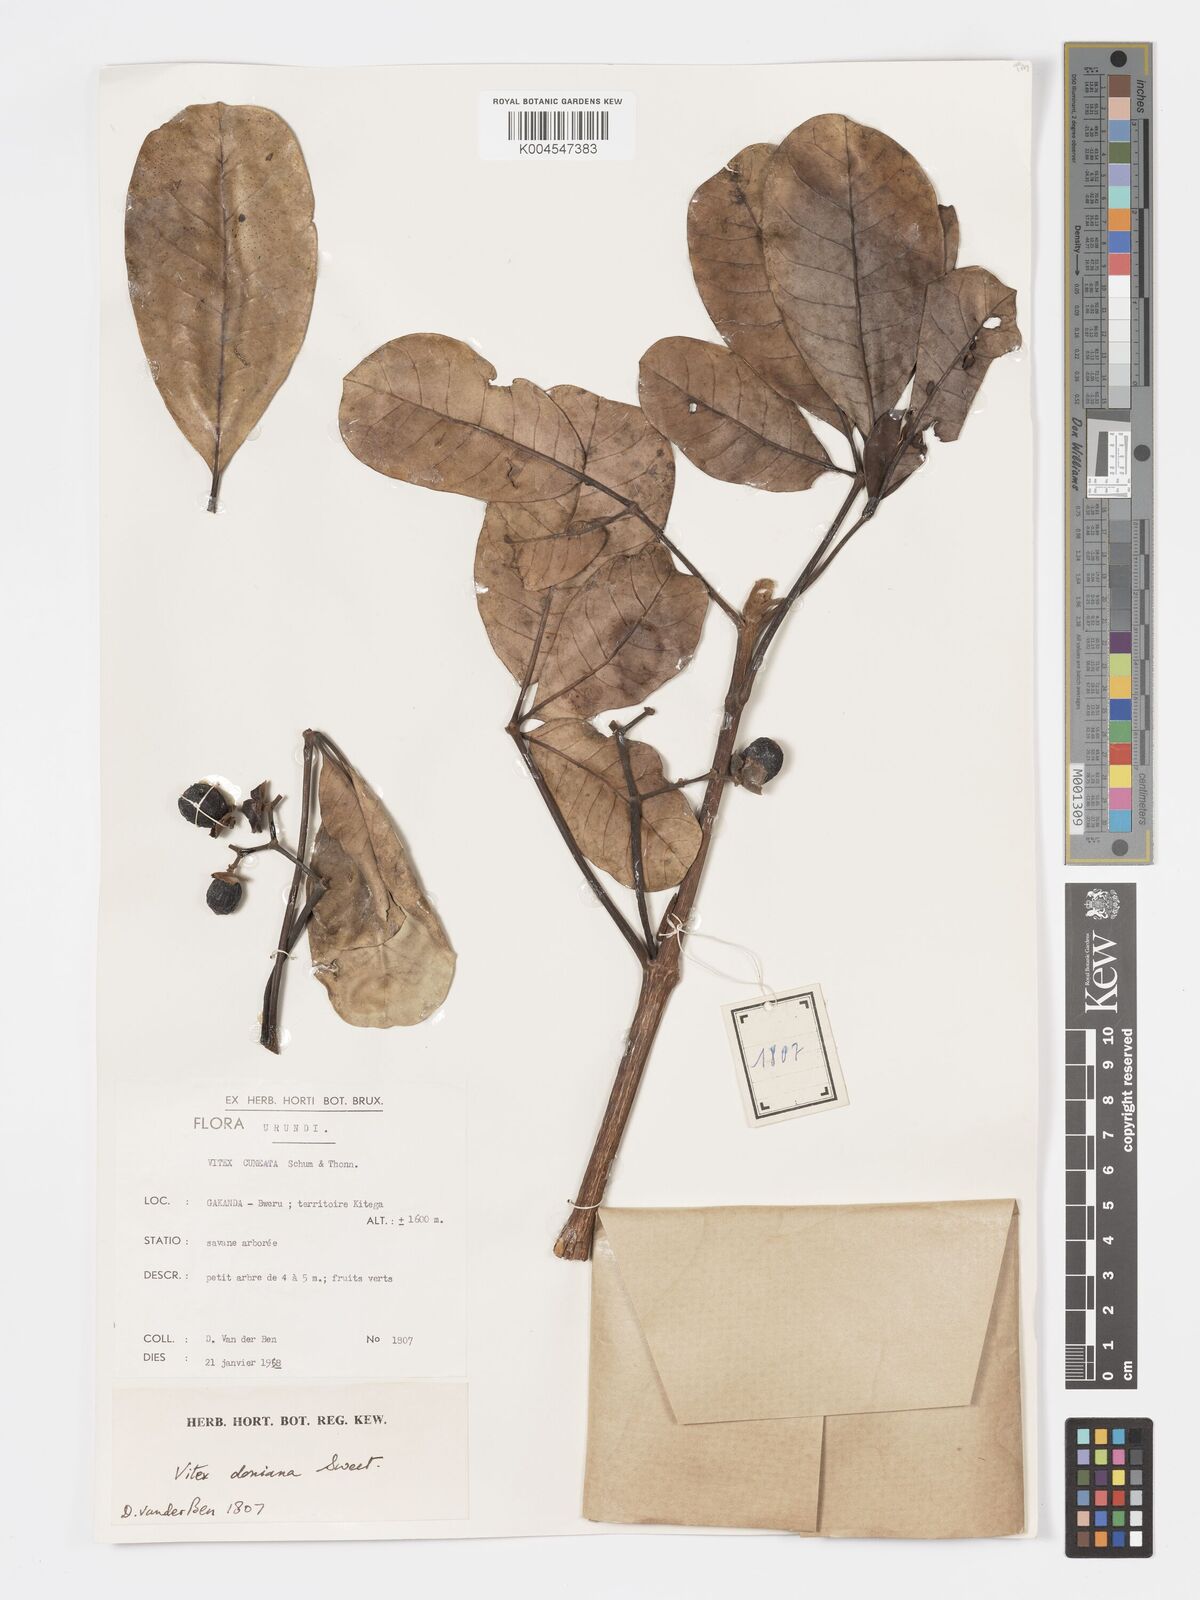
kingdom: Plantae
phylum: Tracheophyta
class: Magnoliopsida
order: Lamiales
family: Lamiaceae
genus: Vitex
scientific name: Vitex doniana
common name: Black plum
